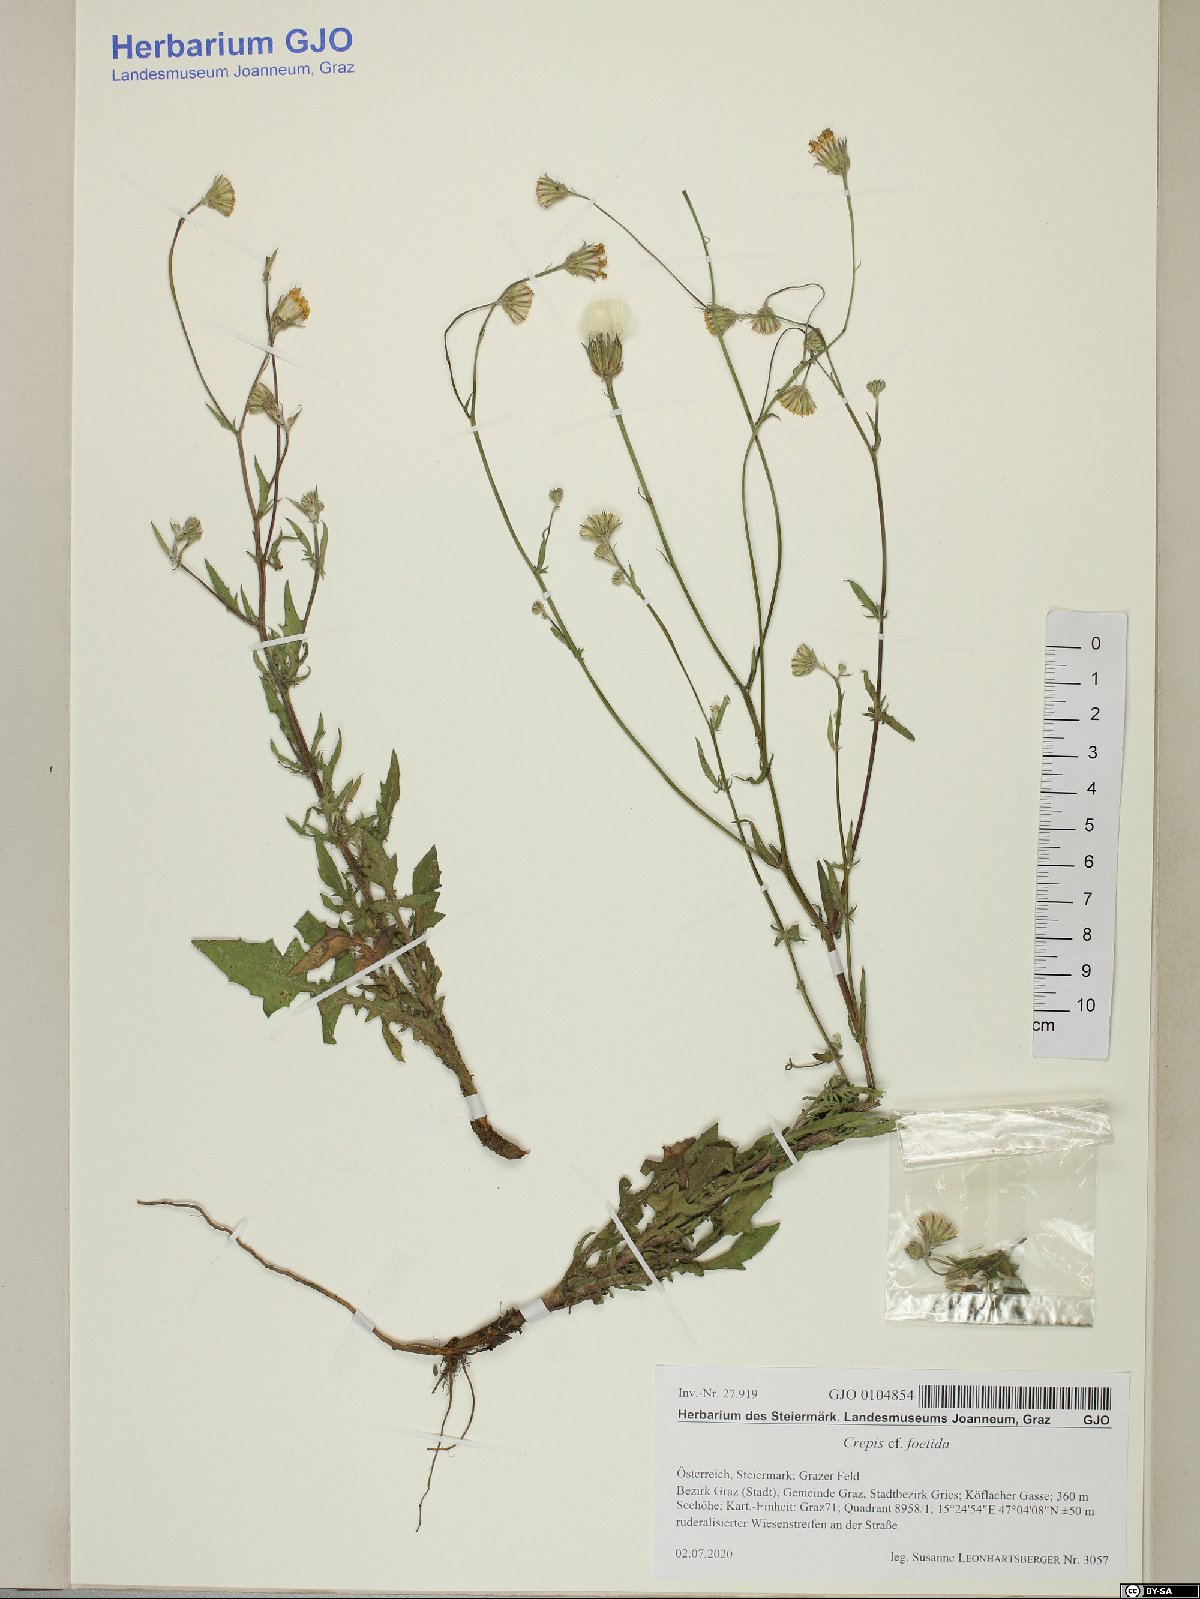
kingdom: Plantae
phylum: Tracheophyta
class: Magnoliopsida
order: Asterales
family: Asteraceae
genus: Crepis
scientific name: Crepis foetida
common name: Stinking hawk's-beard
